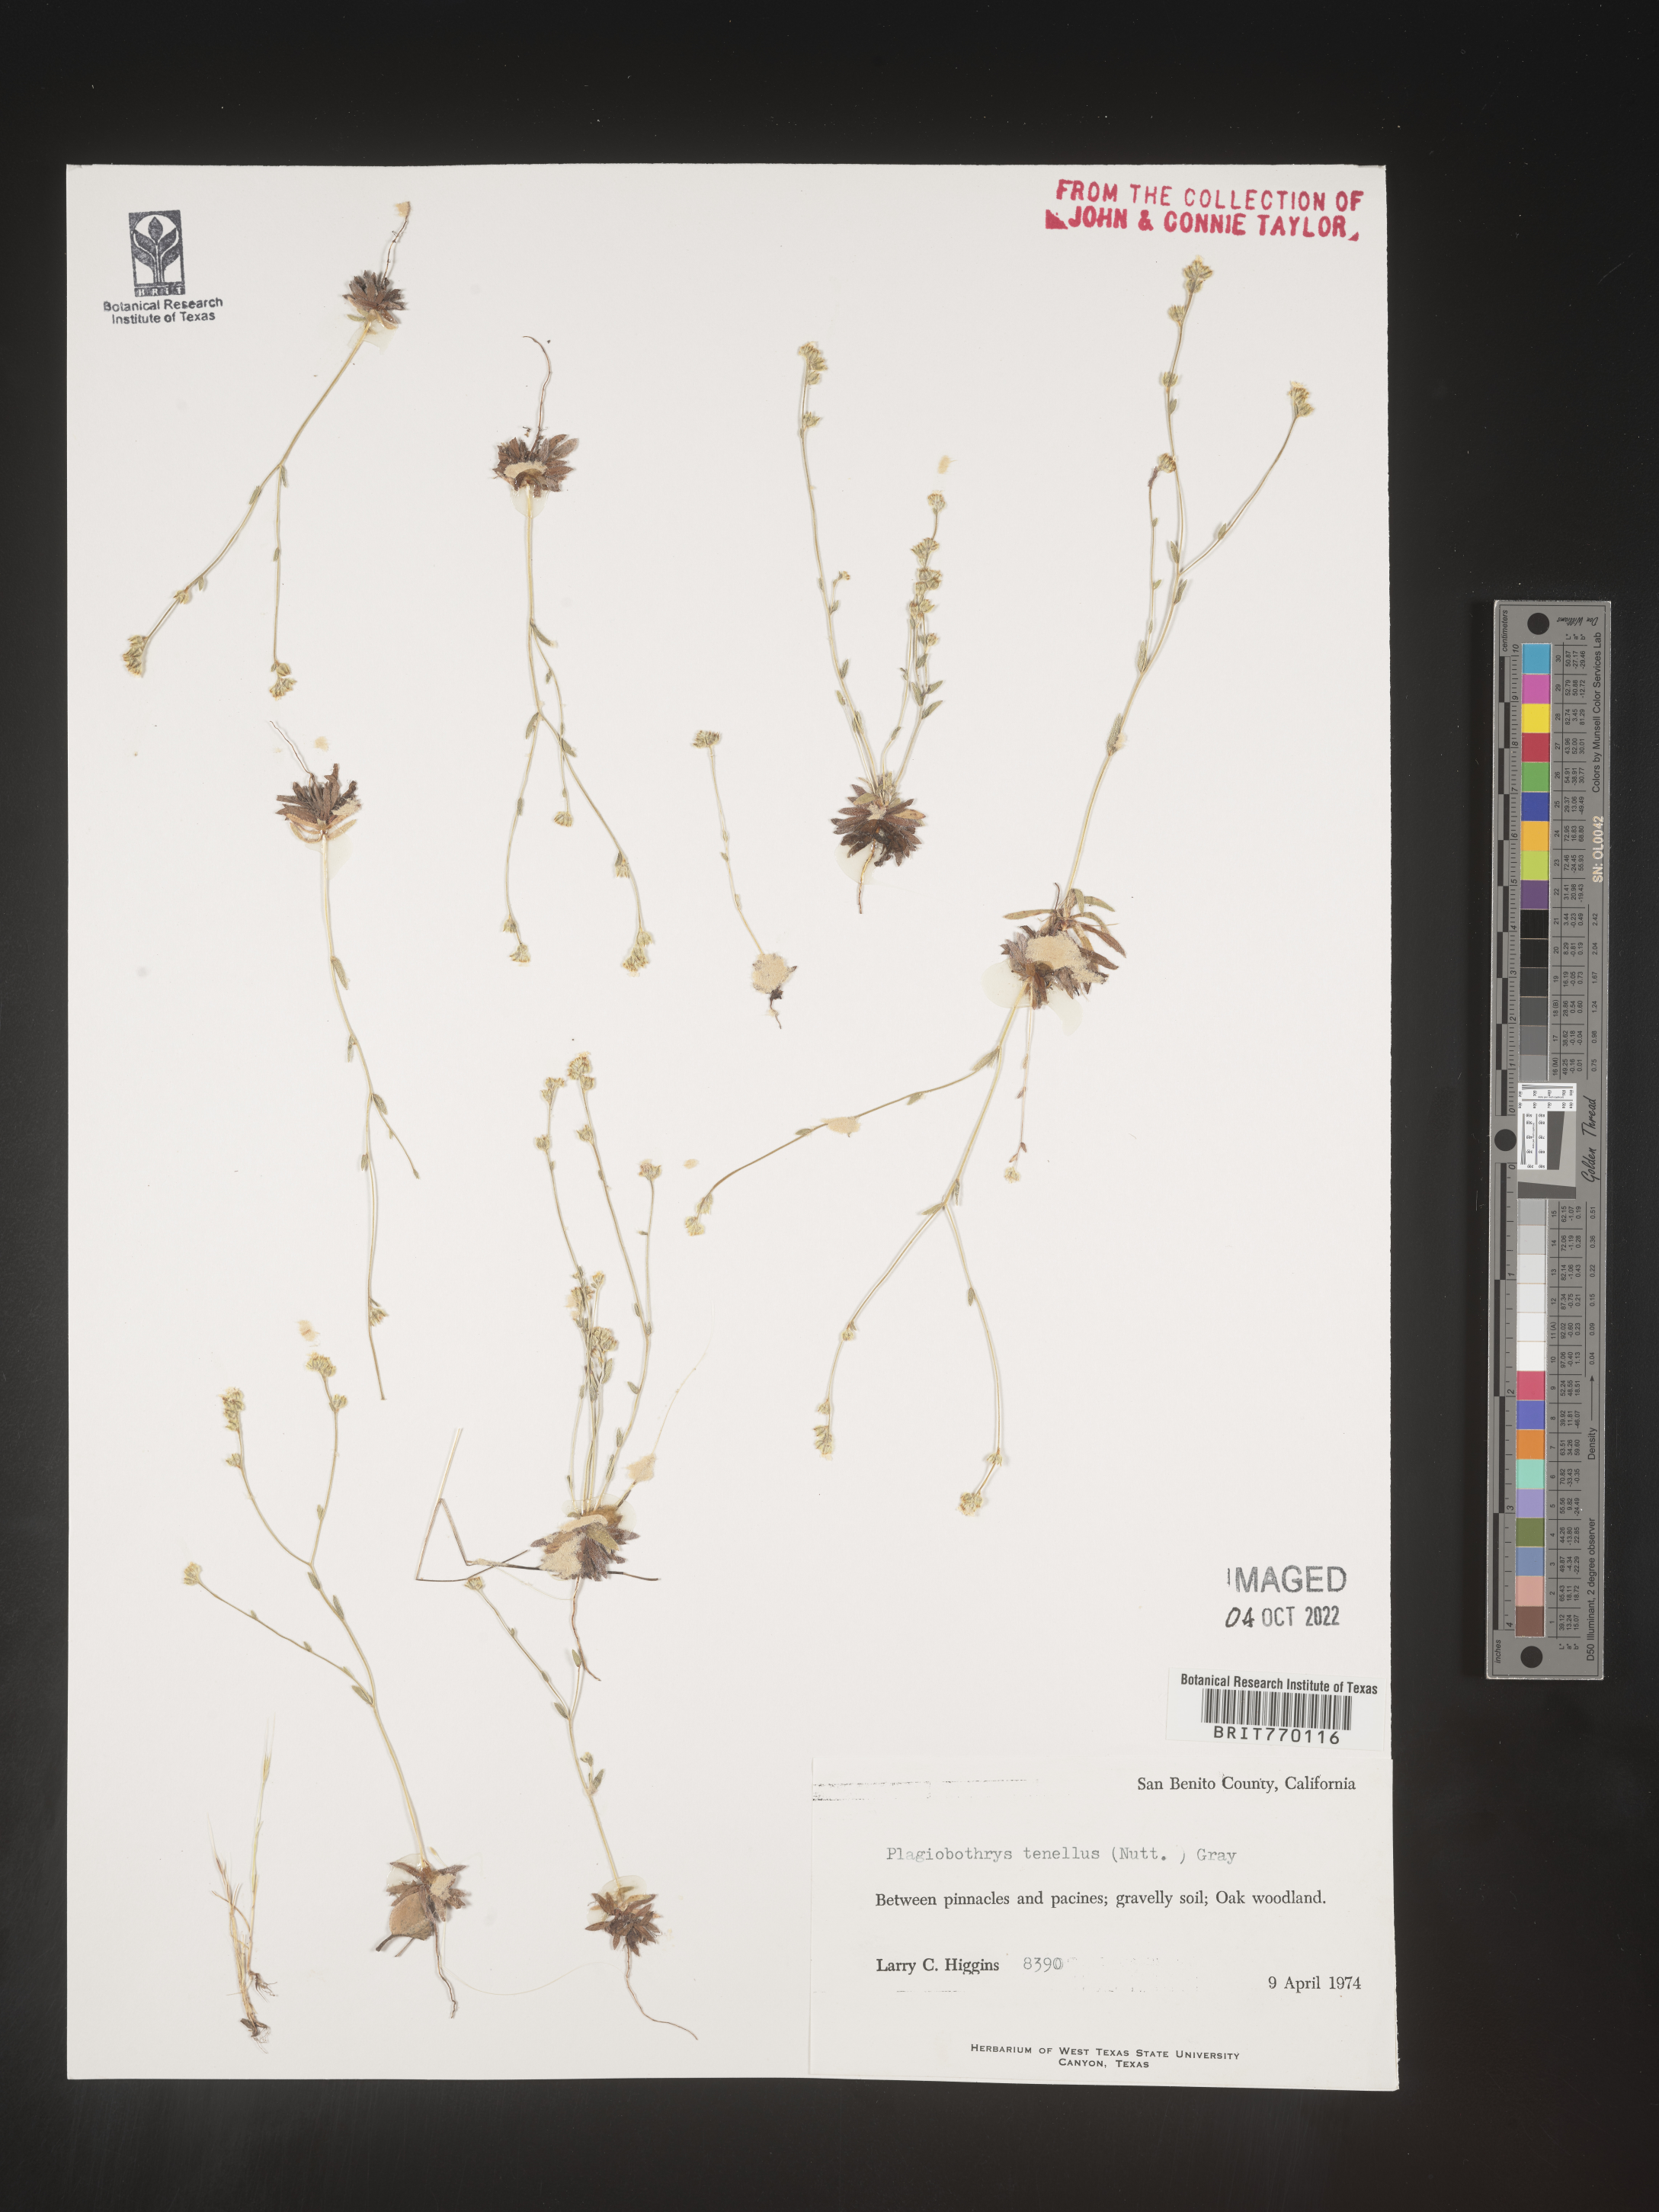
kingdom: Plantae
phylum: Tracheophyta
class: Magnoliopsida
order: Boraginales
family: Boraginaceae
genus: Plagiobothrys
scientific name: Plagiobothrys
